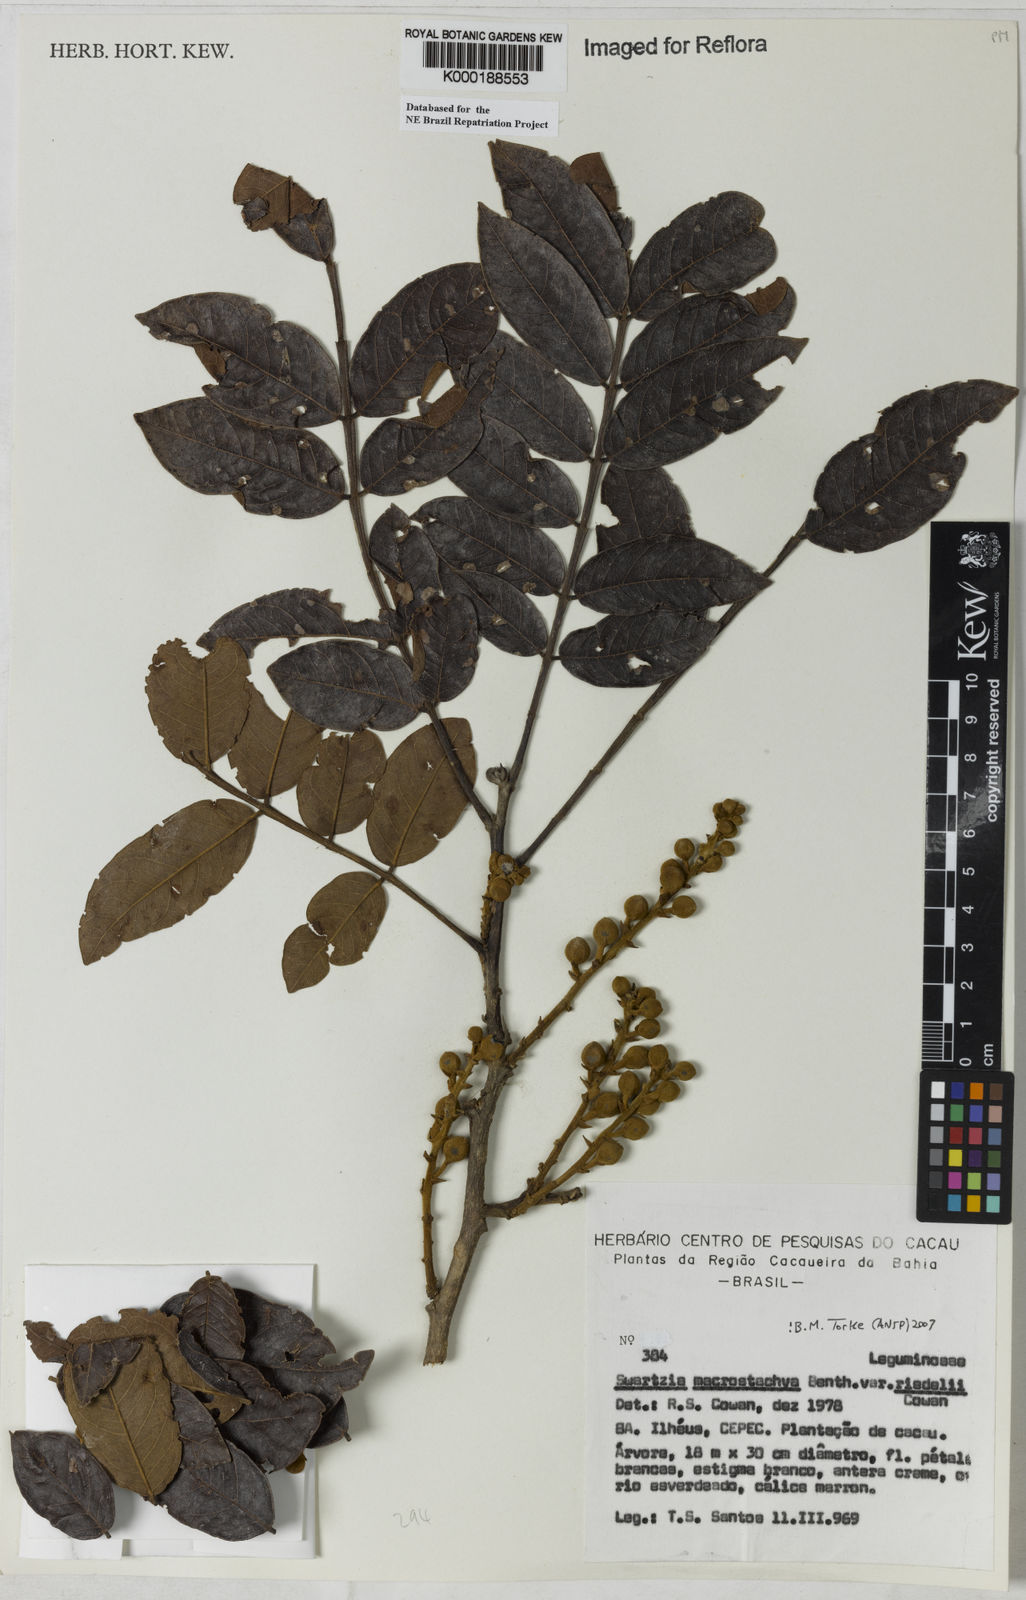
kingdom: Plantae
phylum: Tracheophyta
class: Magnoliopsida
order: Fabales
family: Fabaceae
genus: Swartzia
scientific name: Swartzia macrostachya
